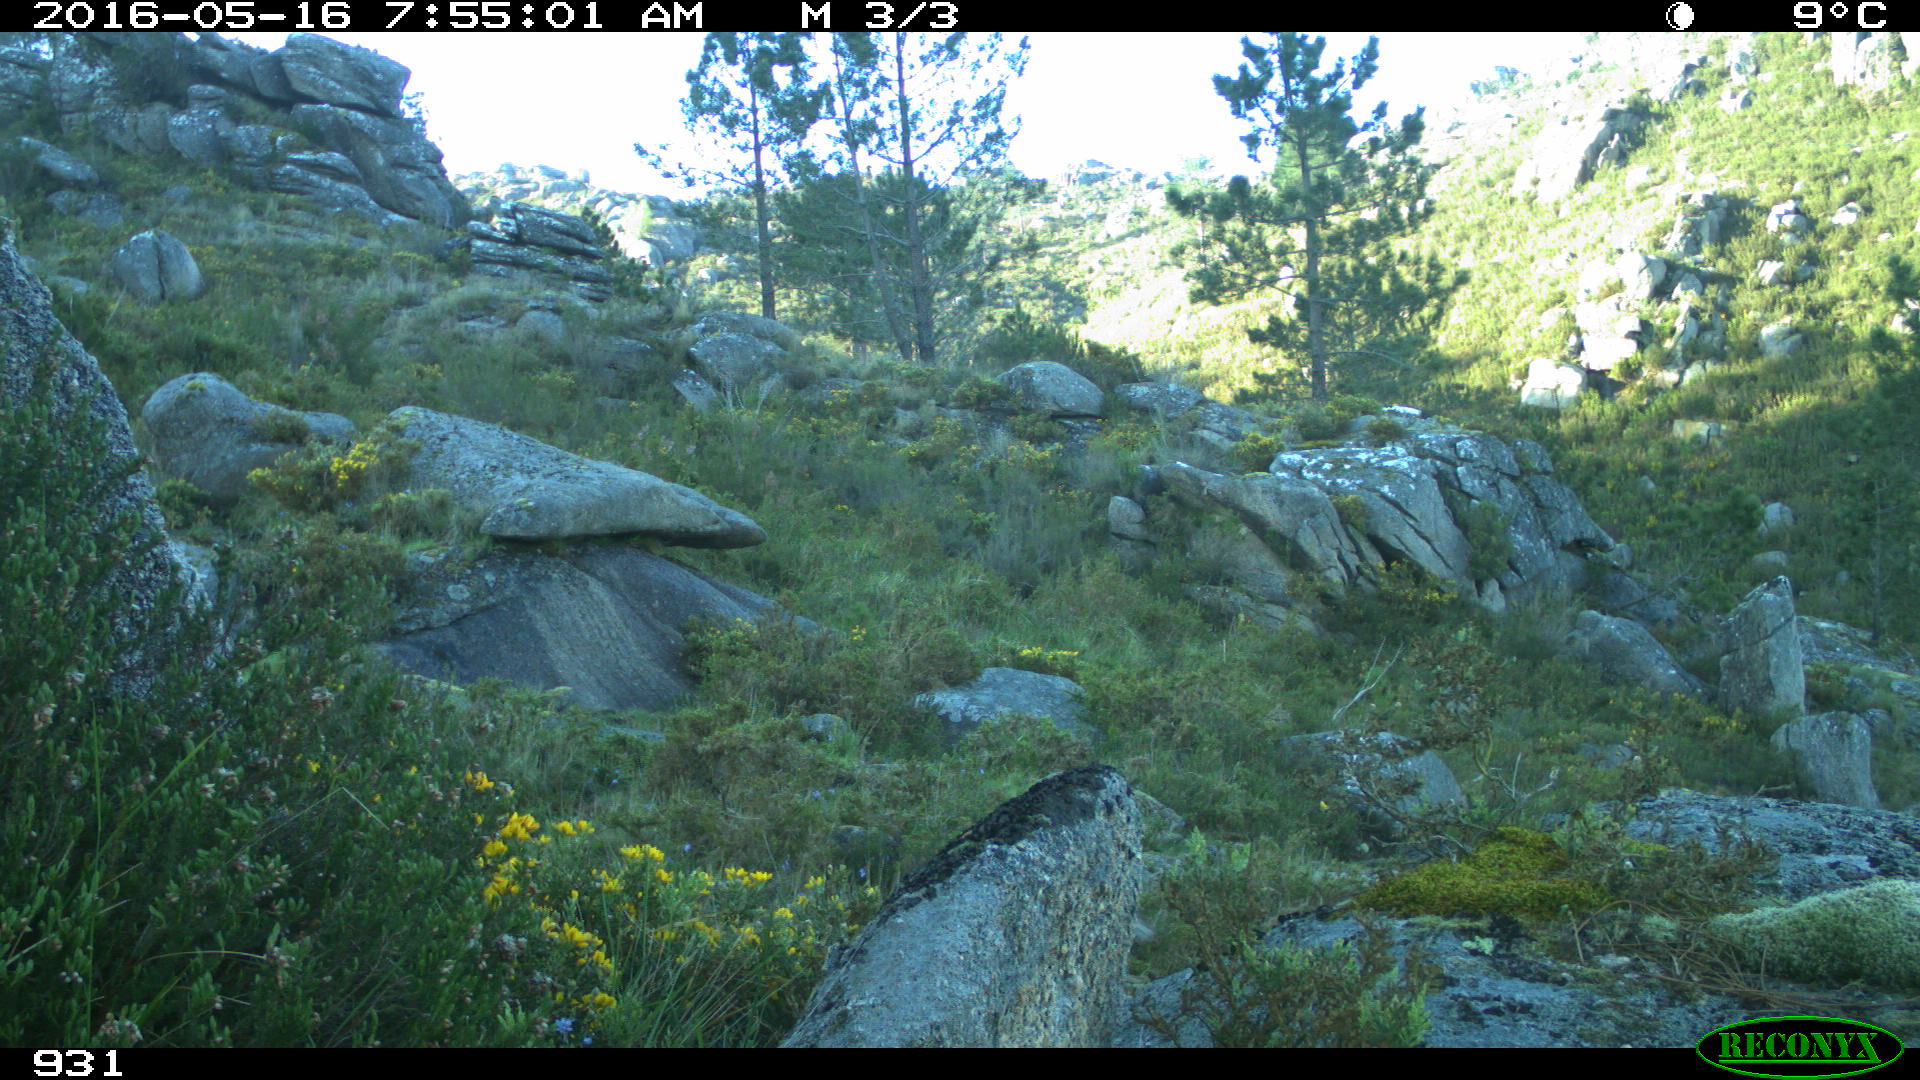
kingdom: Animalia
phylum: Chordata
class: Mammalia
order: Carnivora
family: Canidae
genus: Vulpes
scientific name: Vulpes vulpes
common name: Red fox
